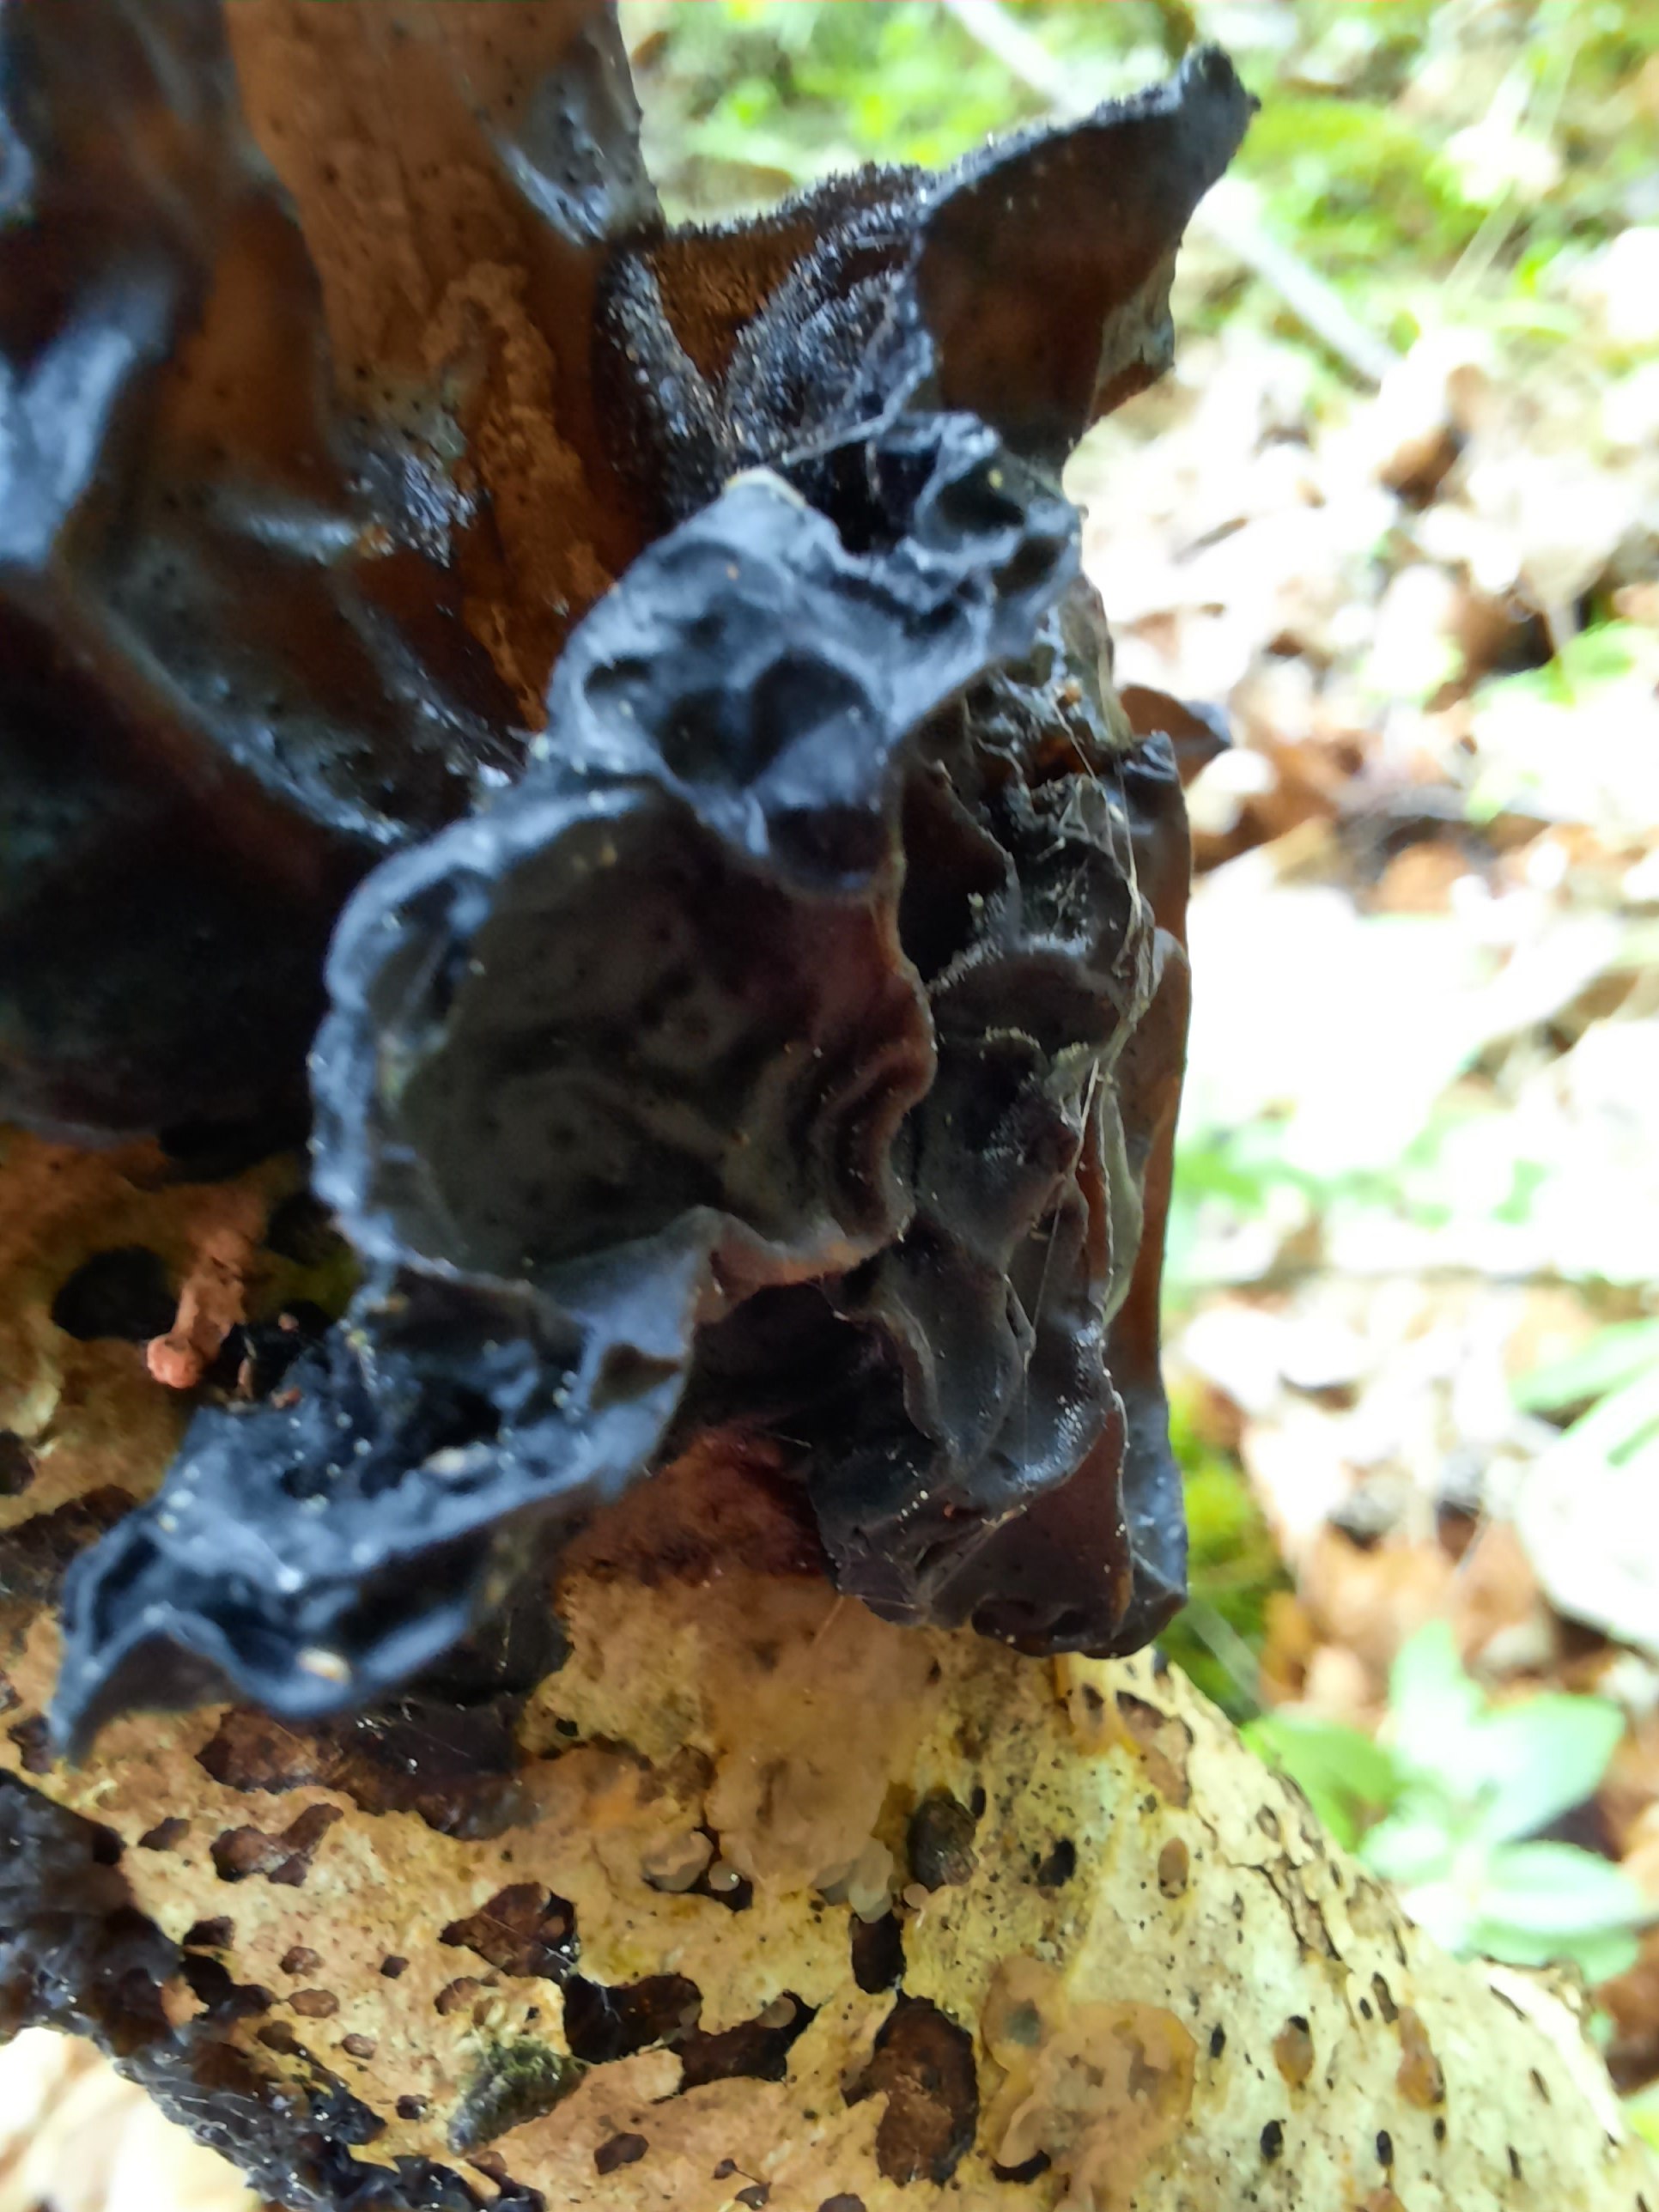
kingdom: Fungi
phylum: Basidiomycota
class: Agaricomycetes
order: Auriculariales
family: Auriculariaceae
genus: Exidia
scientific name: Exidia glandulosa
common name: ege-bævretop
